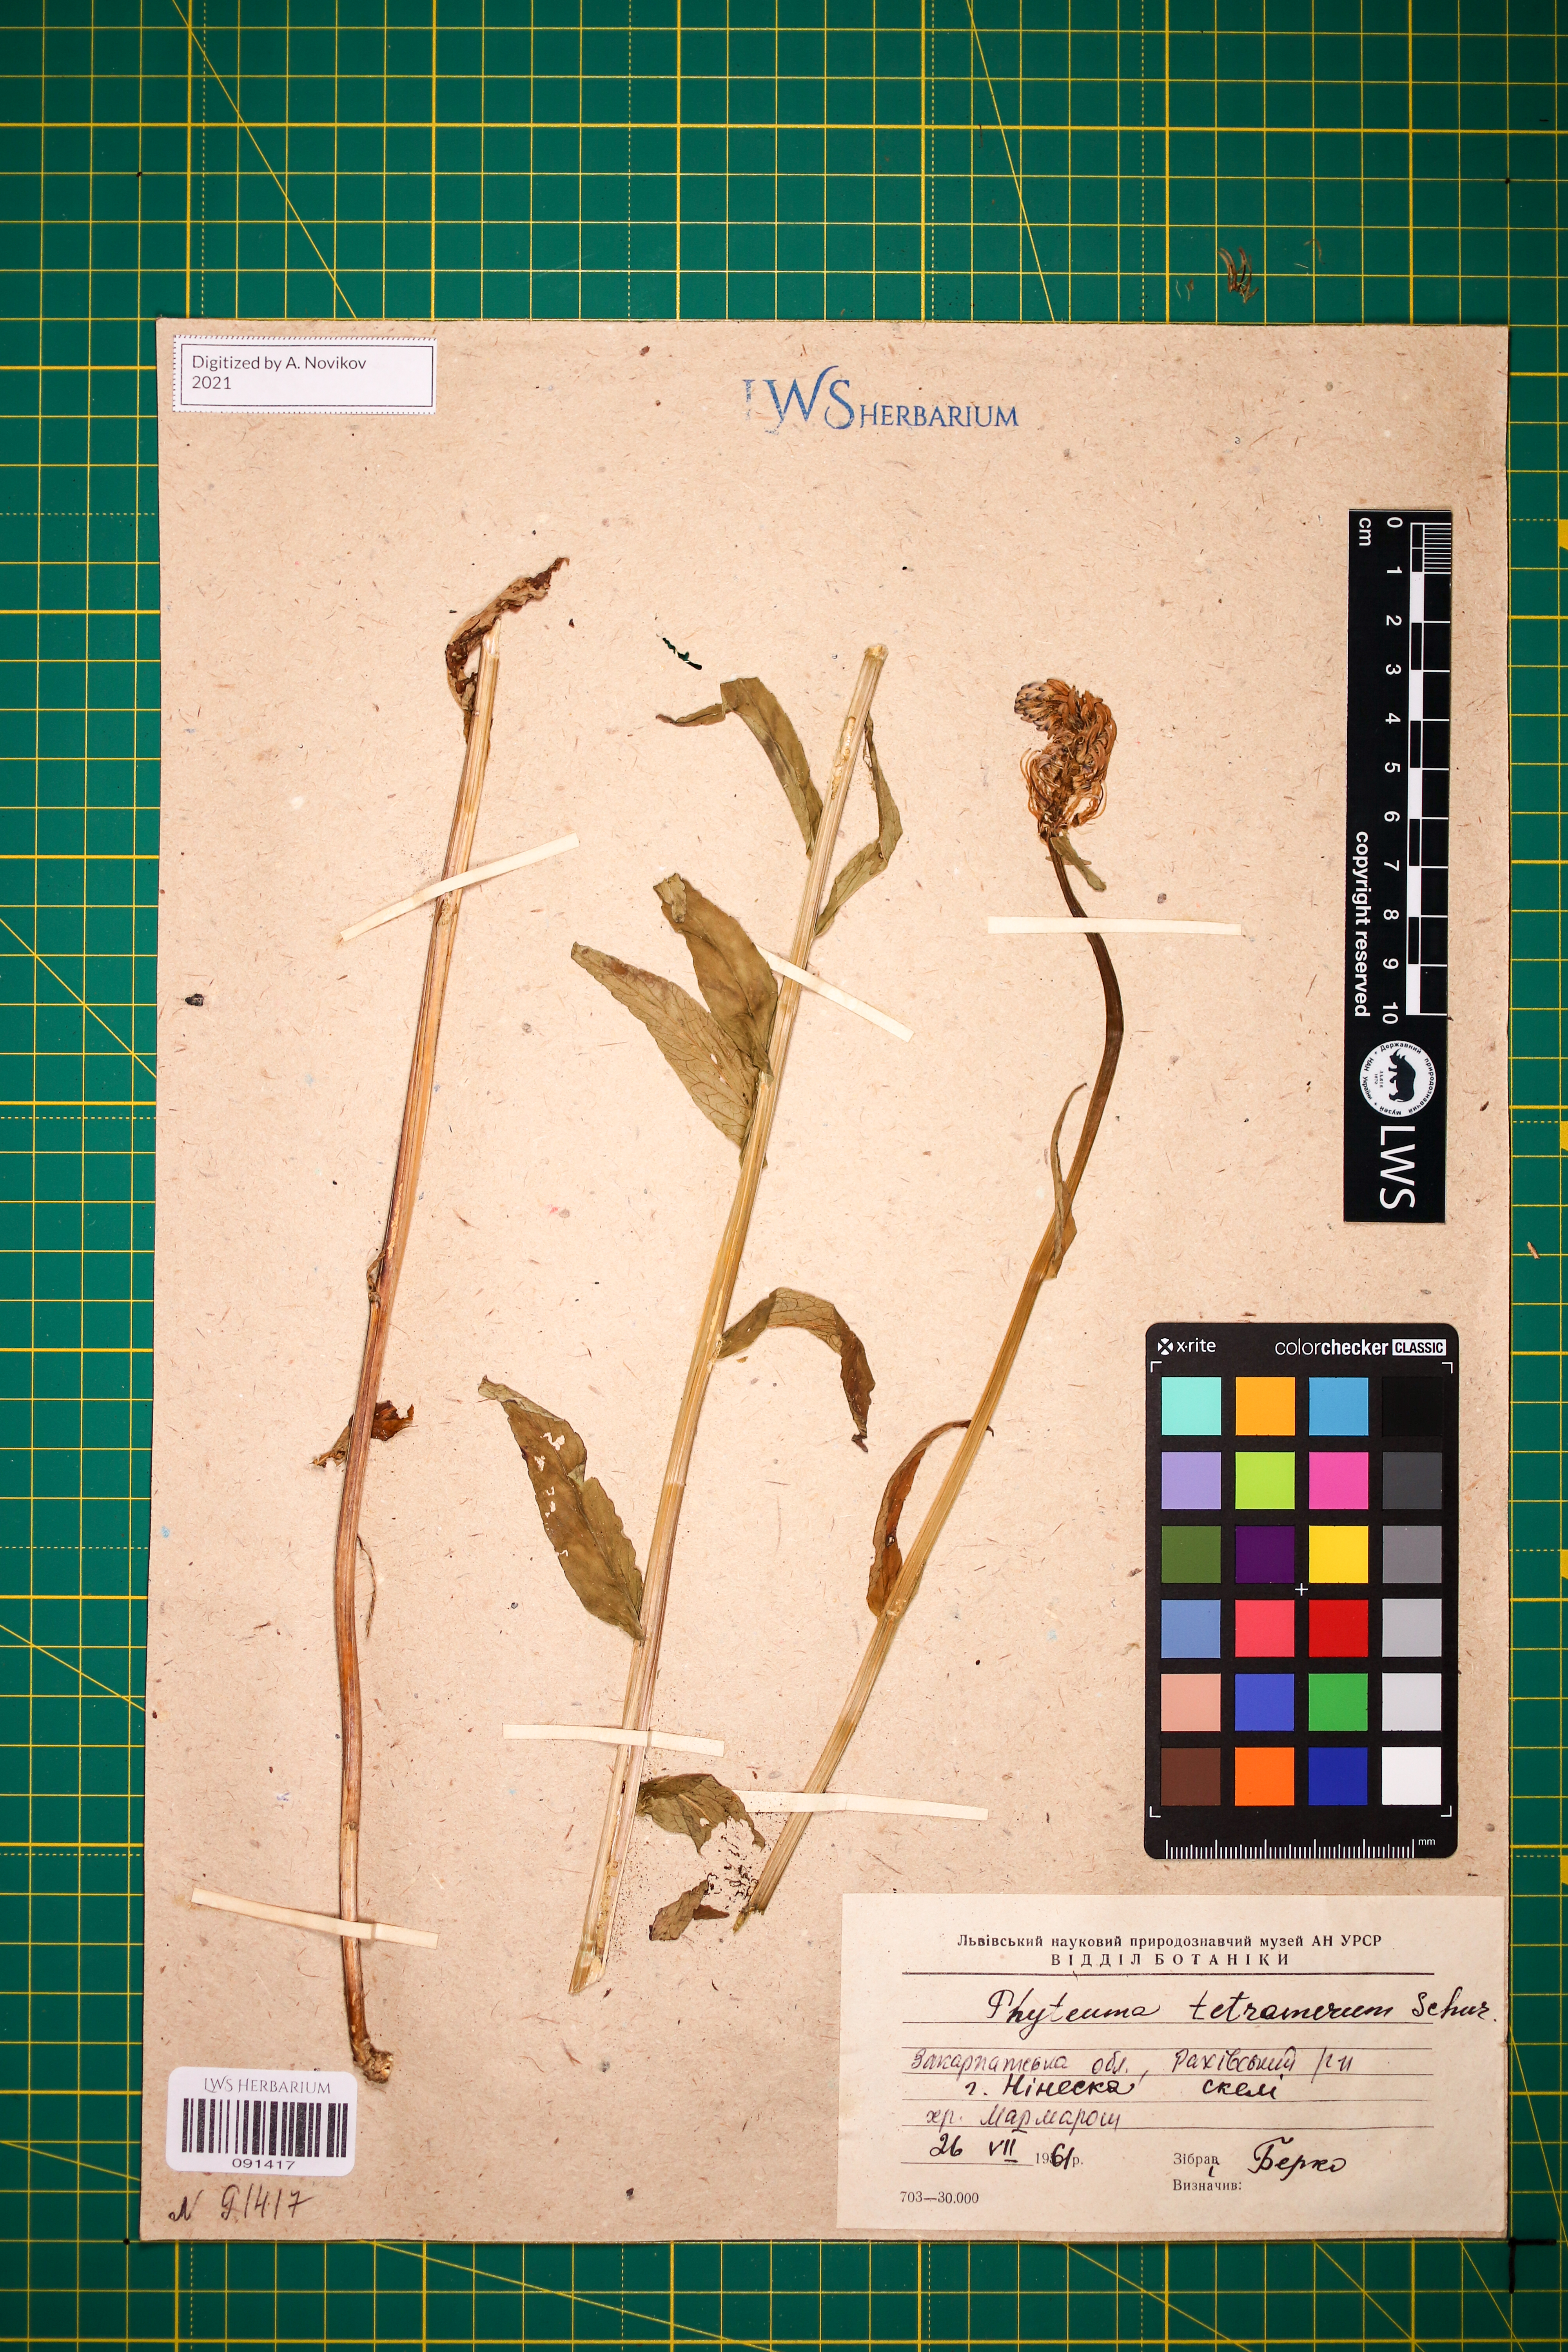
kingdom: Plantae
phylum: Tracheophyta
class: Magnoliopsida
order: Asterales
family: Campanulaceae
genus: Phyteuma
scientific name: Phyteuma tetramerum
